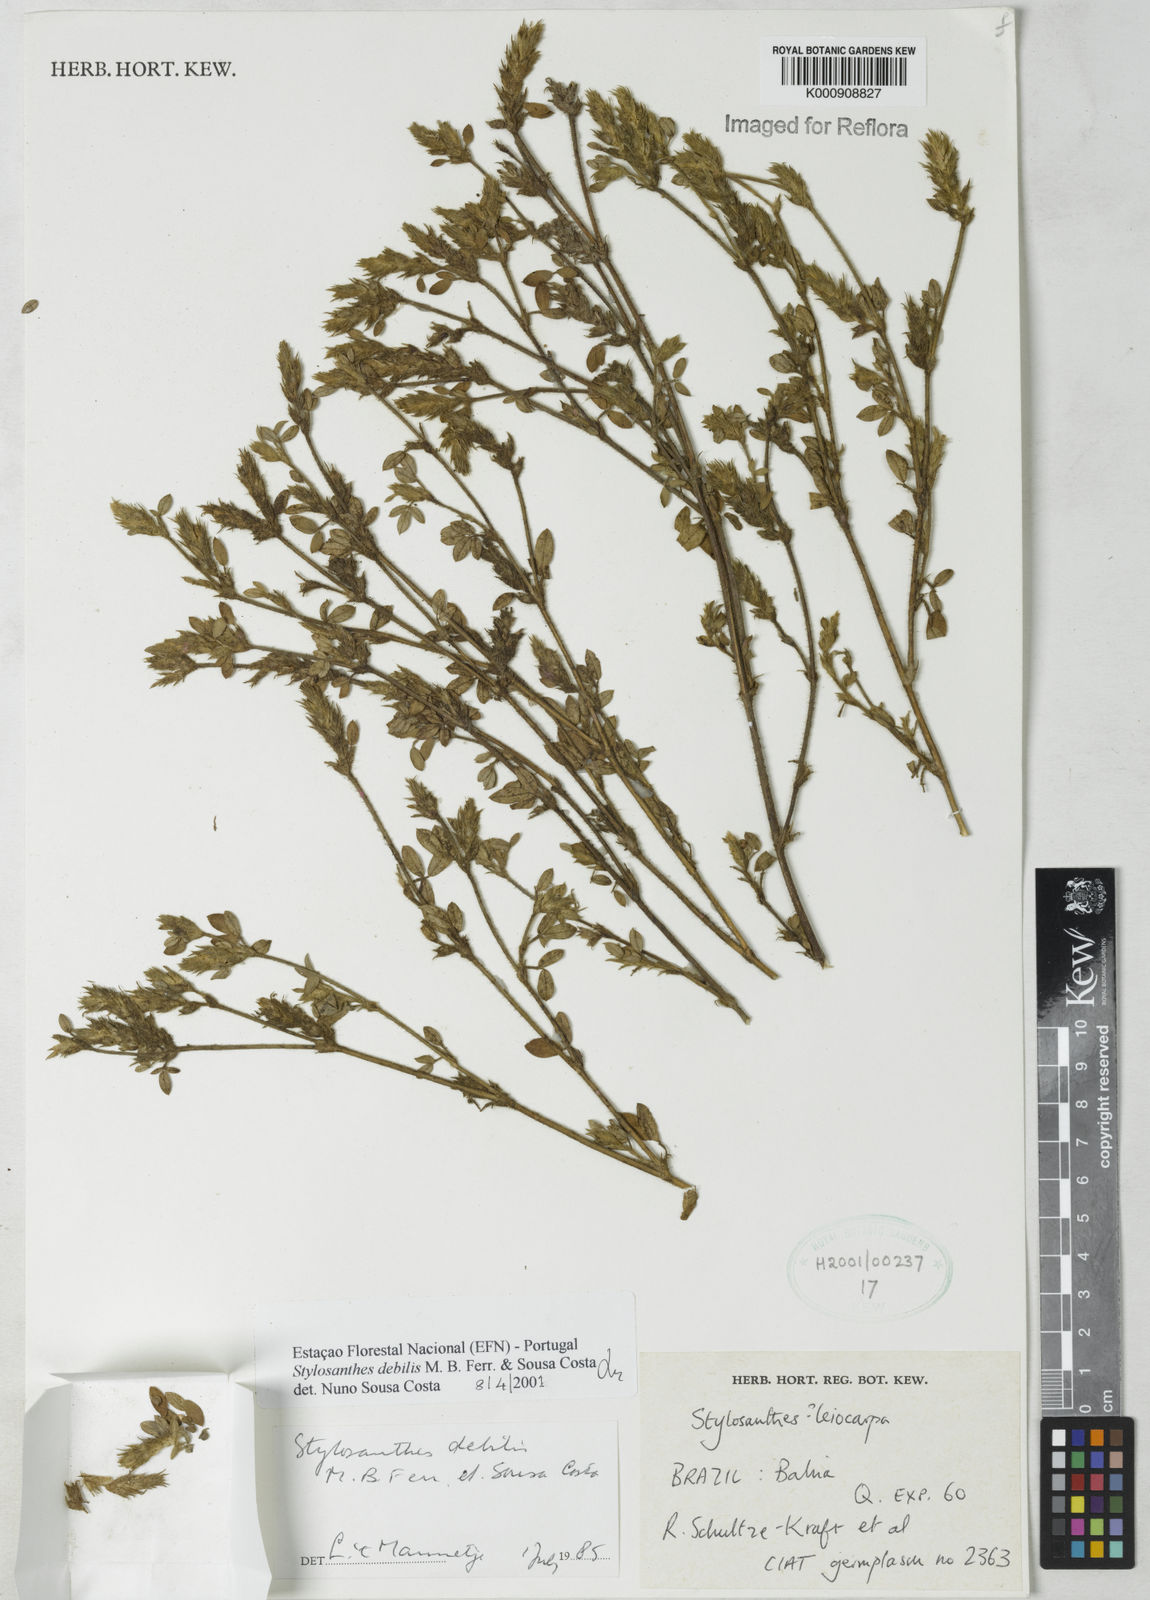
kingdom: Plantae
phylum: Tracheophyta
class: Magnoliopsida
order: Fabales
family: Fabaceae
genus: Stylosanthes
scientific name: Stylosanthes viscosa
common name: Viscid pencil-flower
